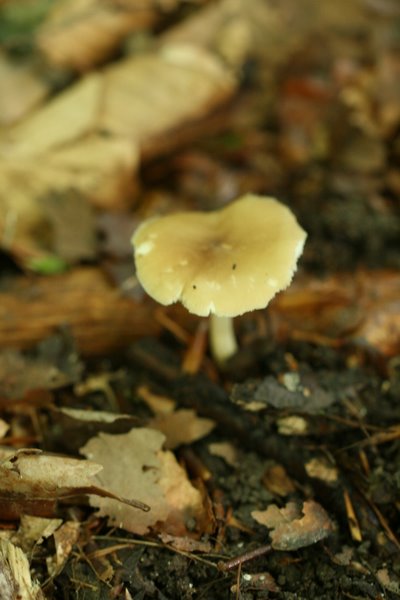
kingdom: Fungi
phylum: Basidiomycota
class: Agaricomycetes
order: Agaricales
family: Porotheleaceae
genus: Hydropodia
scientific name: Hydropodia subalpina
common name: vår-fnugfod
